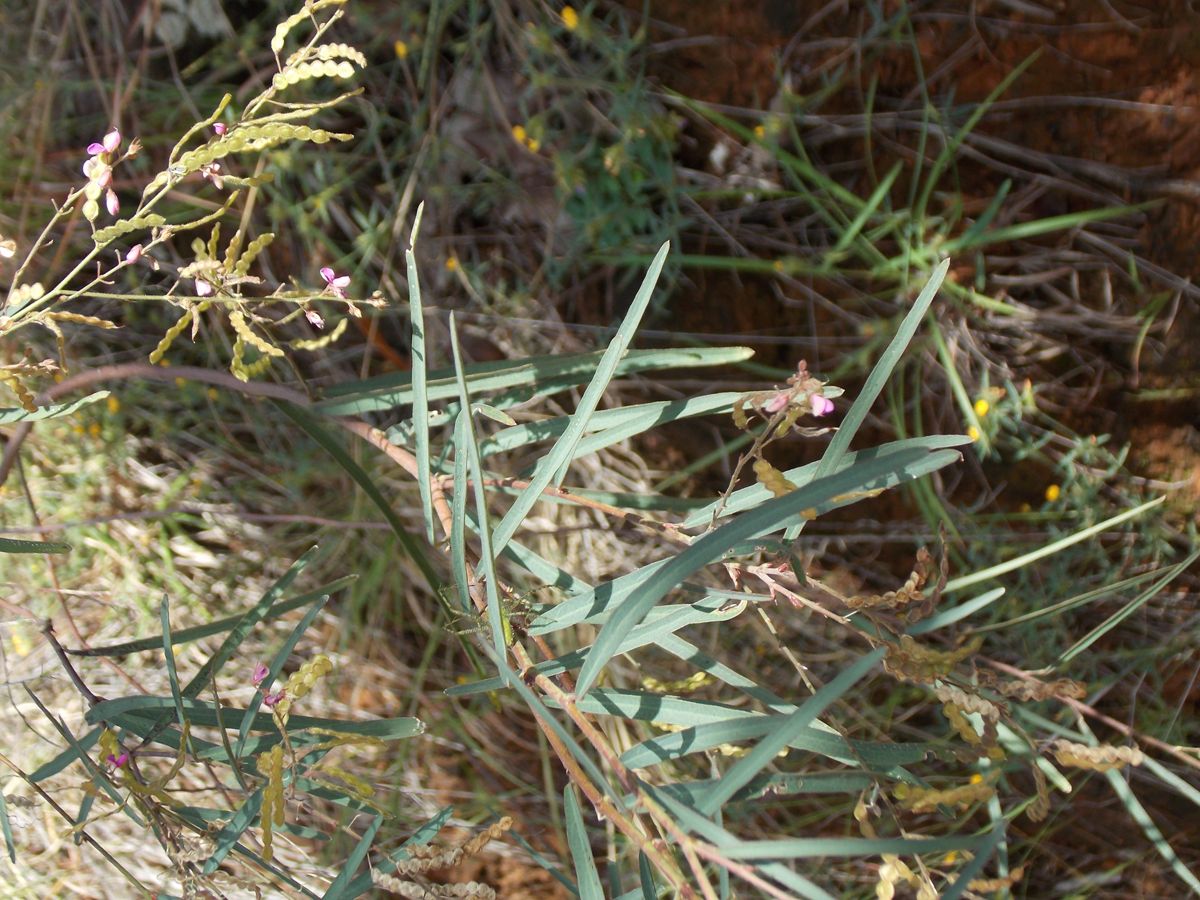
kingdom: Plantae
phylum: Tracheophyta
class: Magnoliopsida
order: Fabales
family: Fabaceae
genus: Desmodium
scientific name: Desmodium angustifolium
